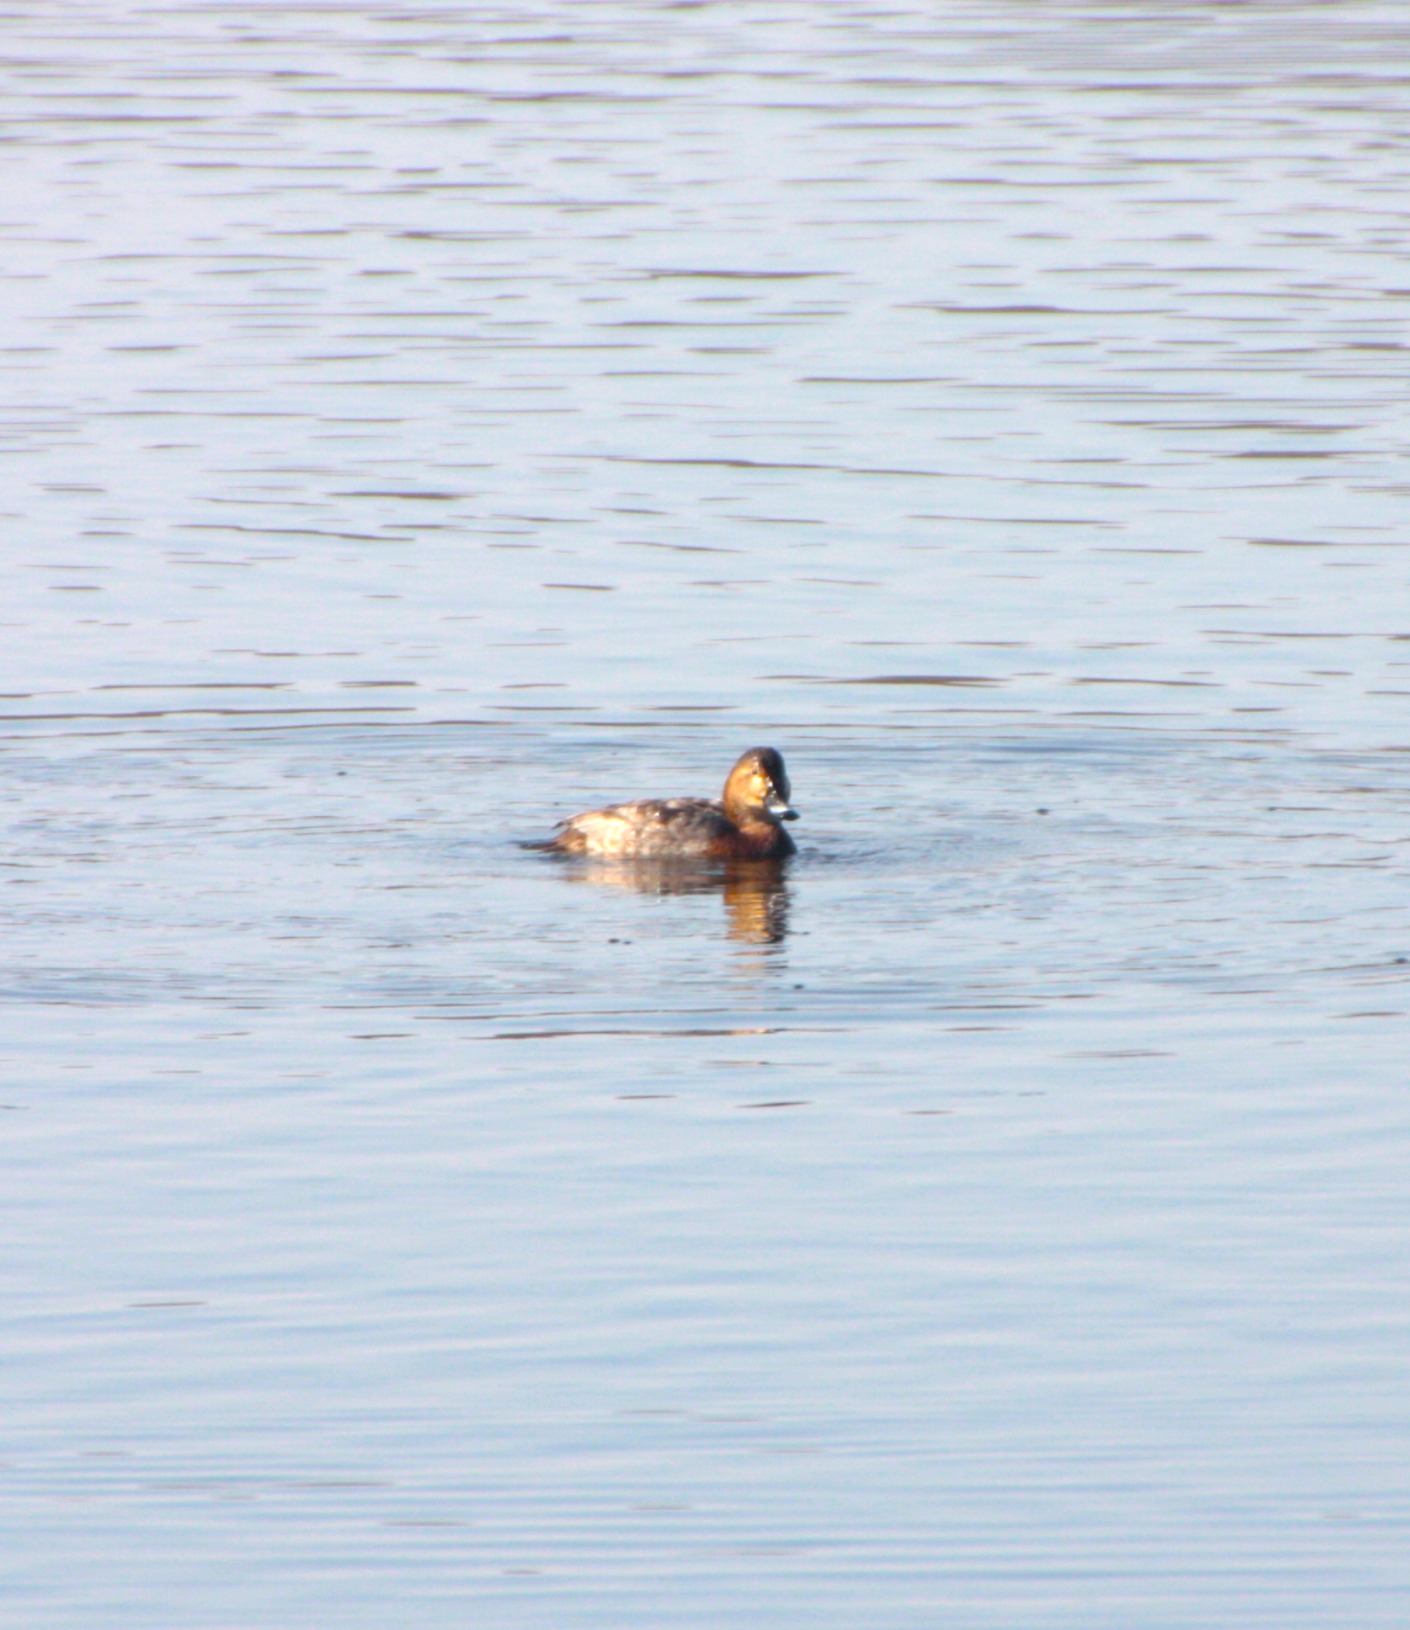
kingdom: Animalia
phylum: Chordata
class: Aves
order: Anseriformes
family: Anatidae
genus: Aythya
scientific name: Aythya ferina
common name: Taffeland
